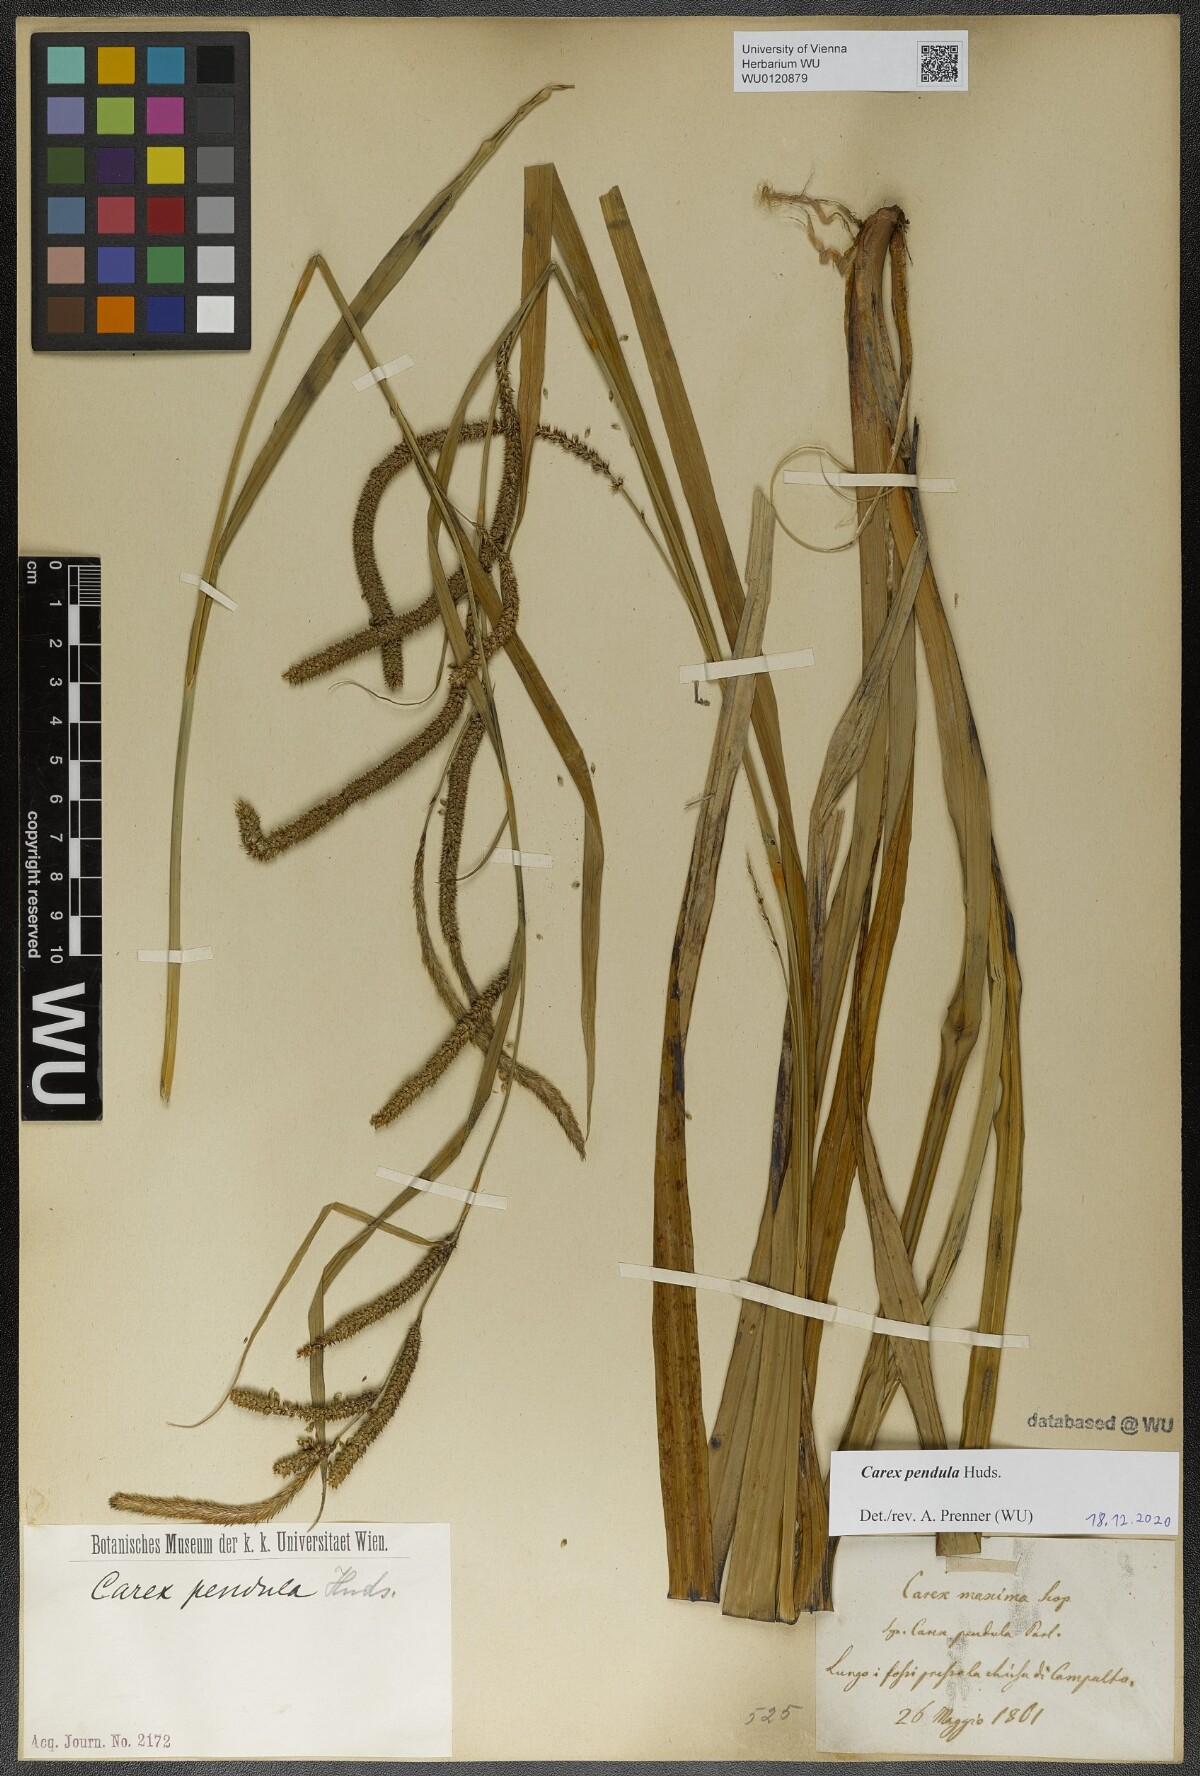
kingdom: Plantae
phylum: Tracheophyta
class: Liliopsida
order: Poales
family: Cyperaceae
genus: Carex
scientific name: Carex pendula
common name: Pendulous sedge
